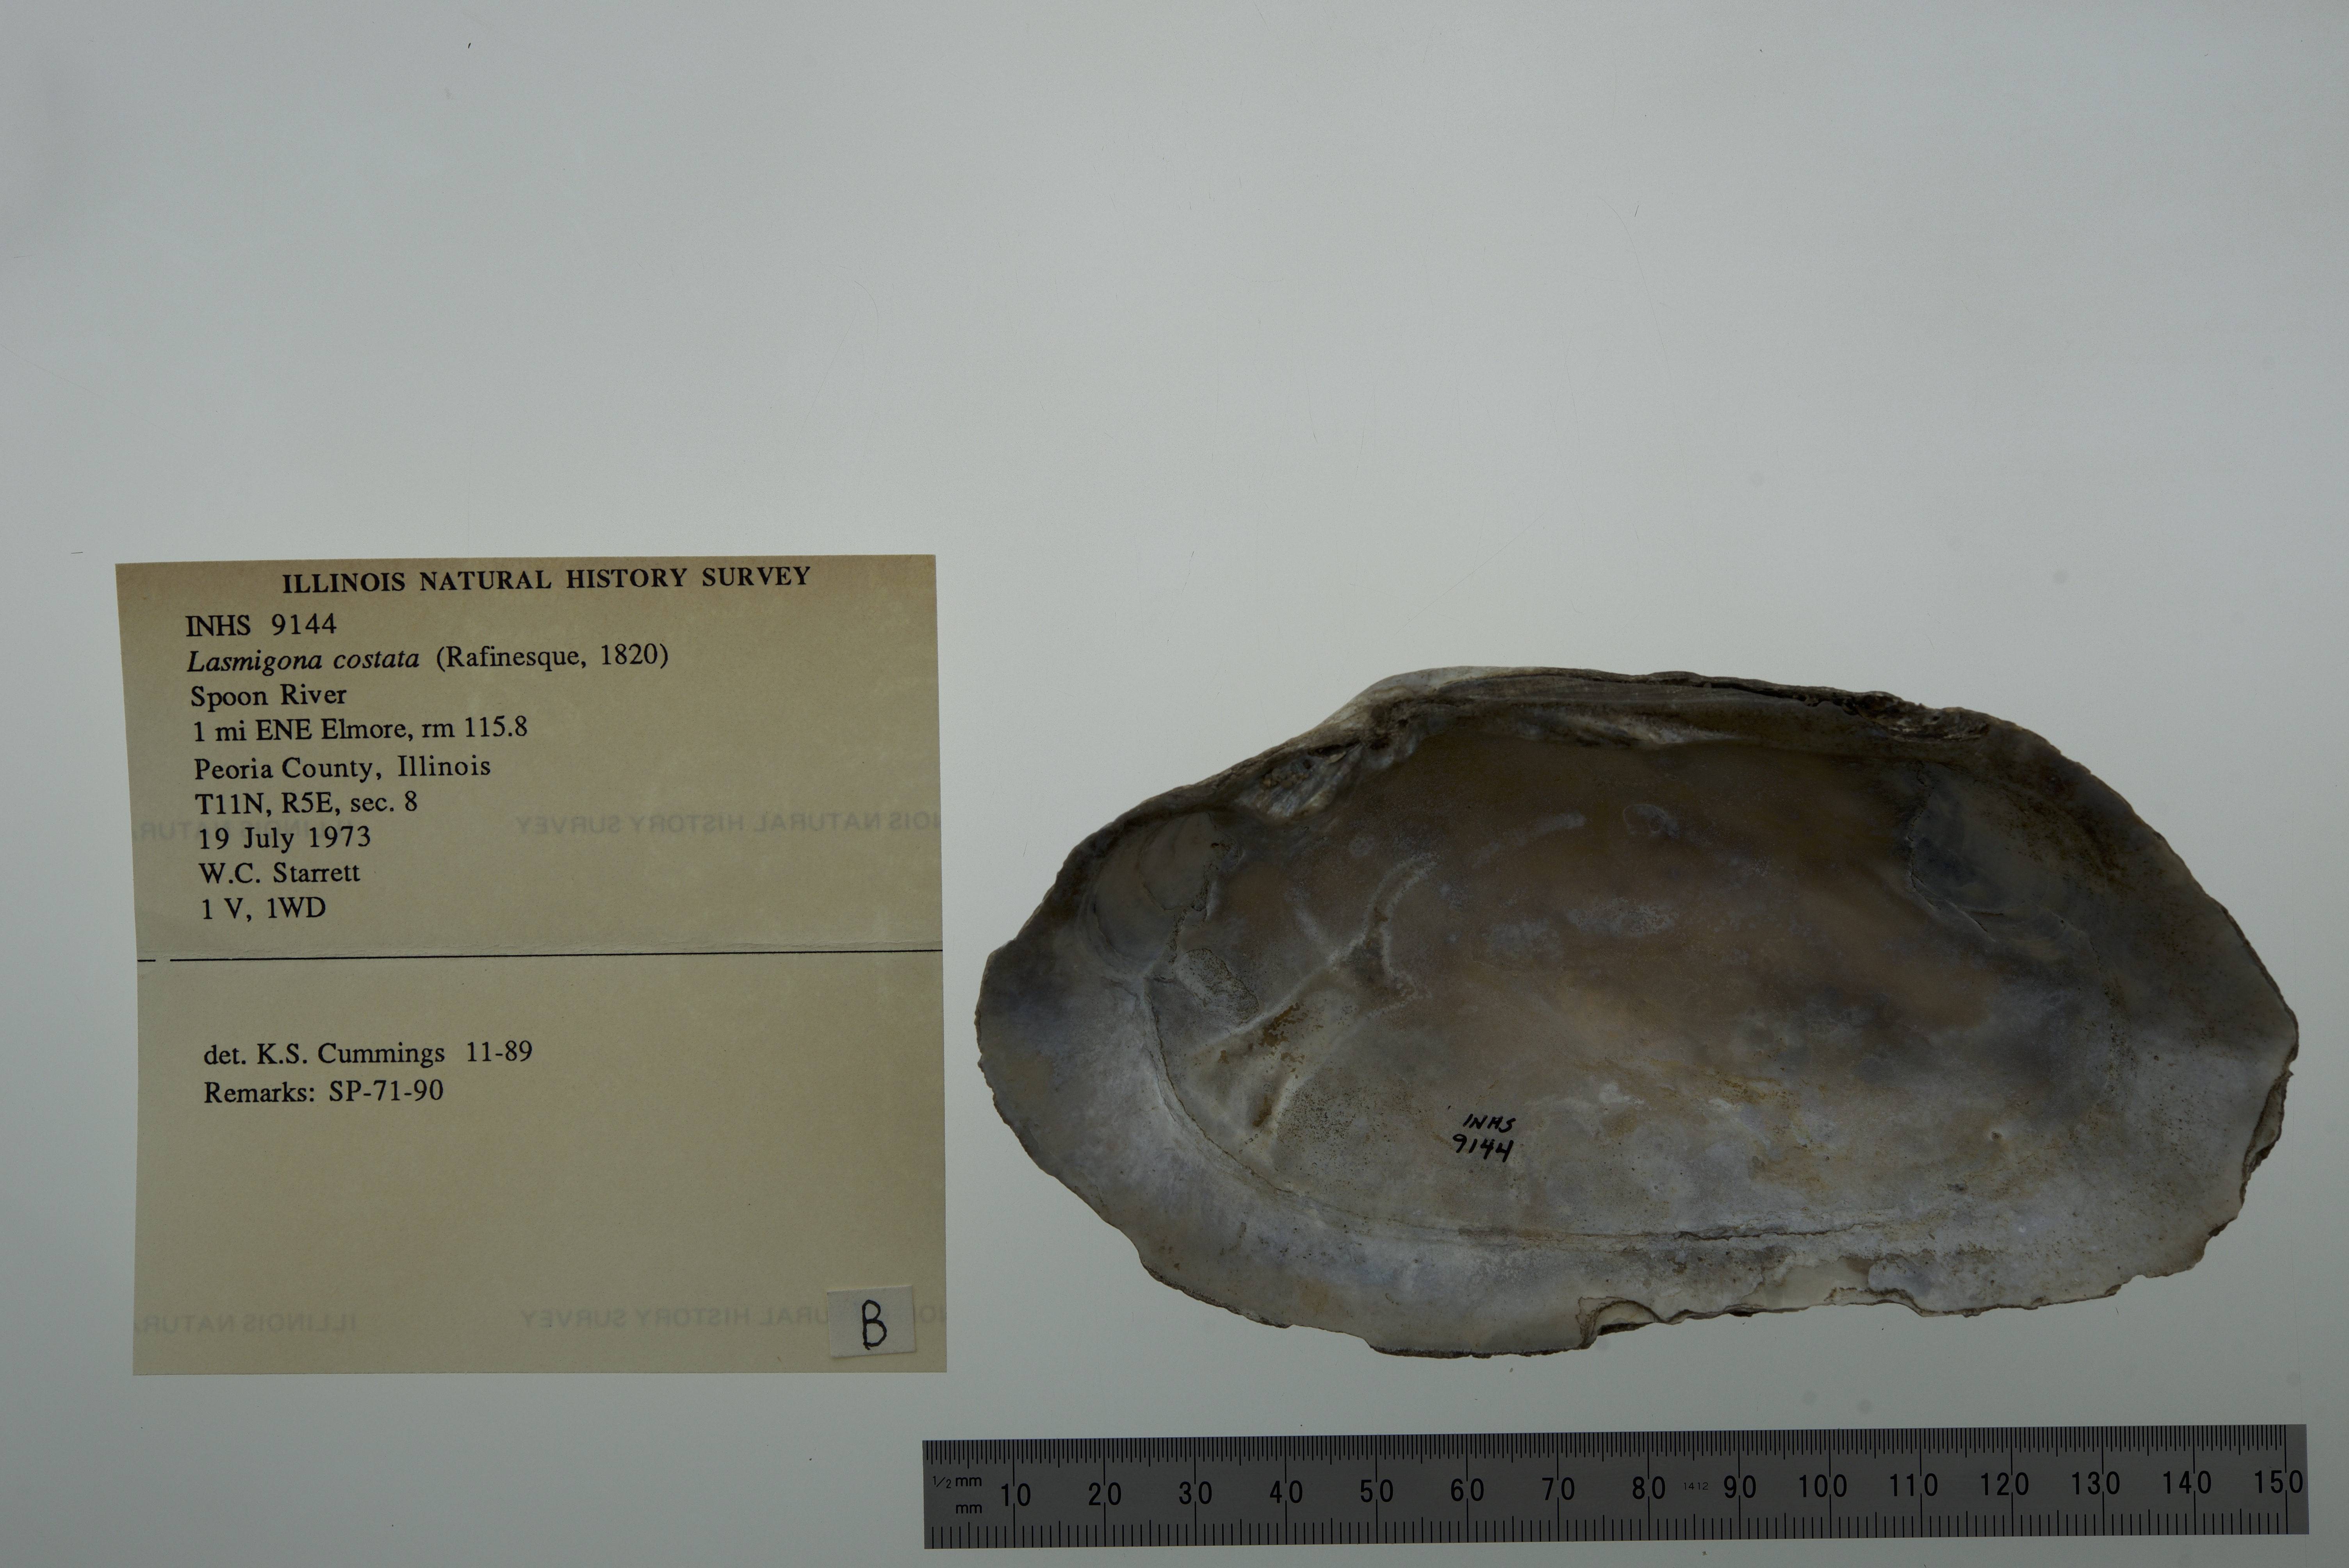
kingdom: Animalia
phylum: Mollusca
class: Bivalvia
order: Unionida
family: Unionidae
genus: Lasmigona
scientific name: Lasmigona costata
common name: Flutedshell
